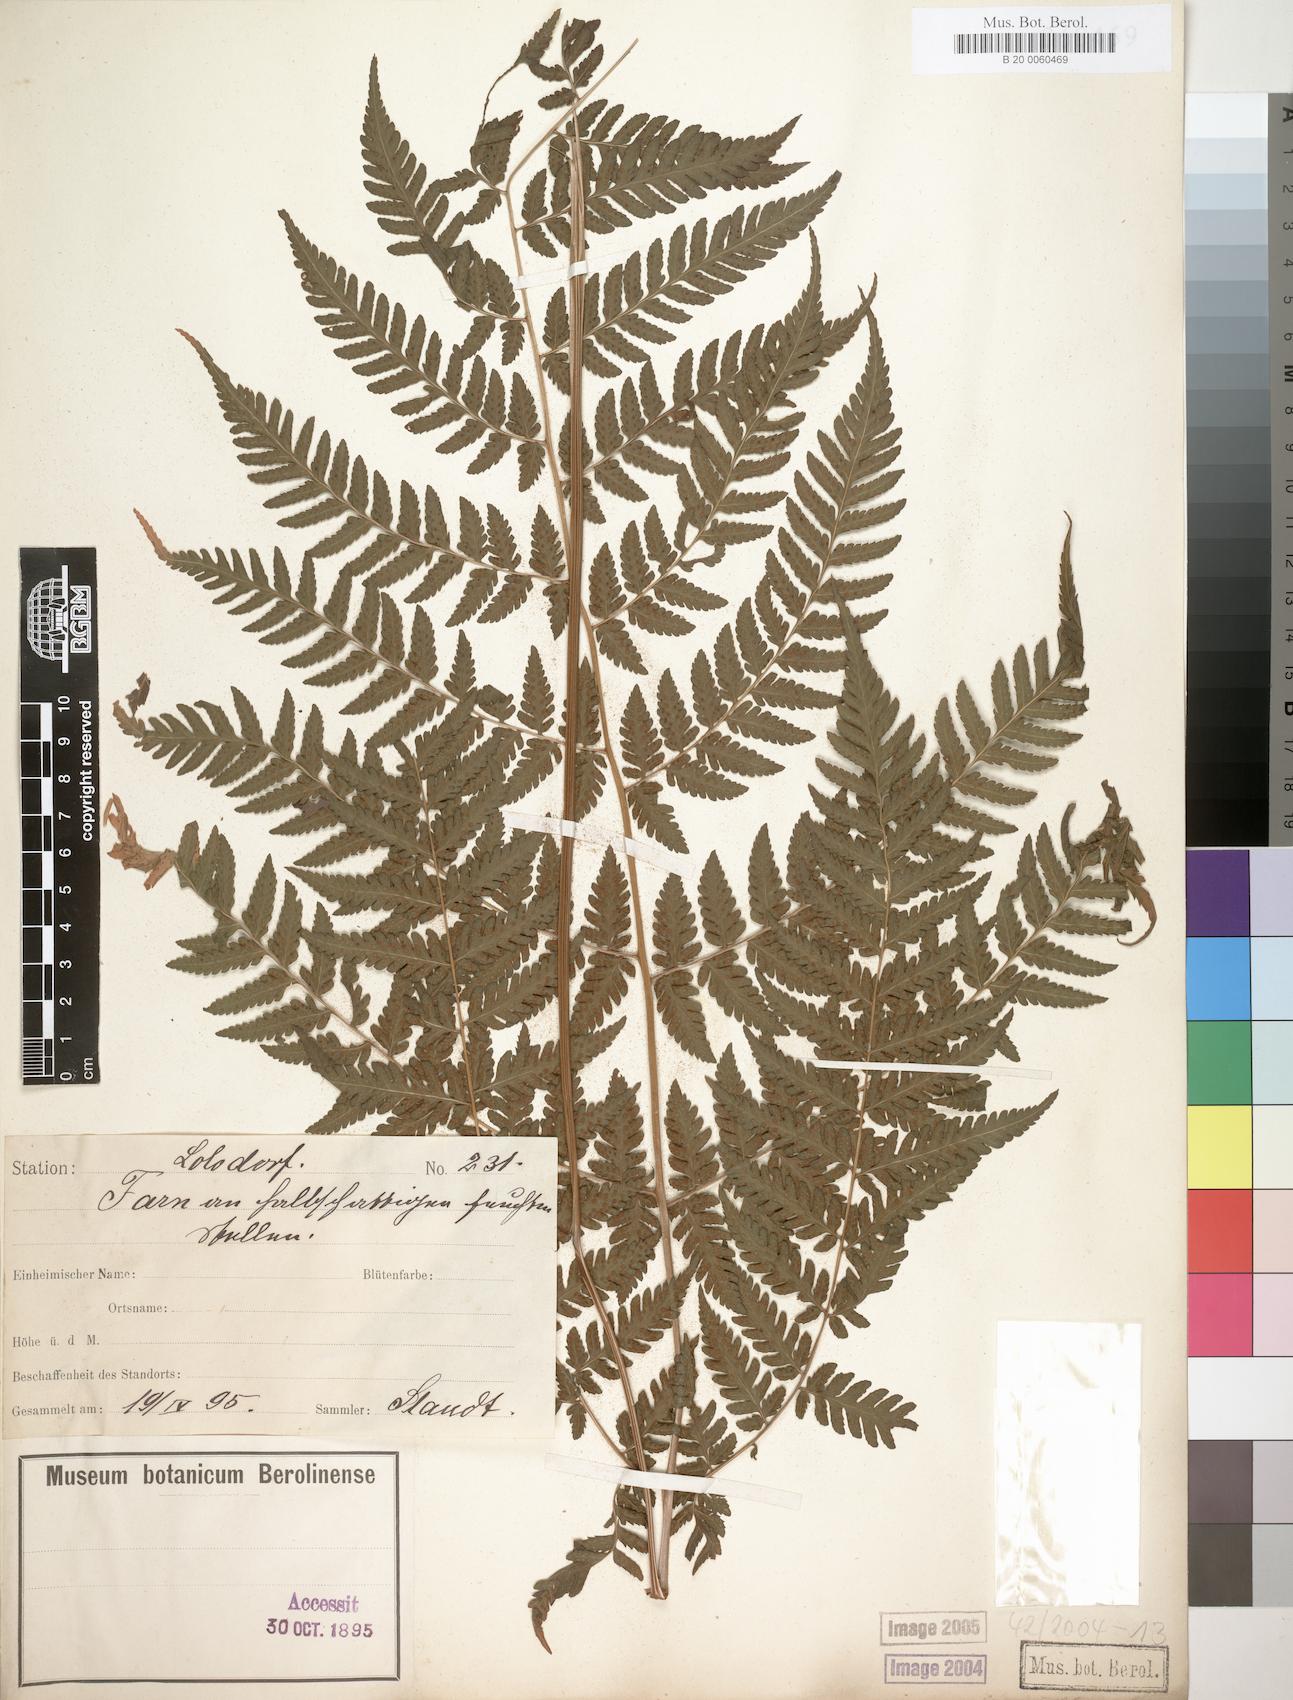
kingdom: Plantae
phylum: Tracheophyta
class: Polypodiopsida
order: Polypodiales
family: Dryopteridaceae
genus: Parapolystichum
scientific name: Parapolystichum nigritianum
